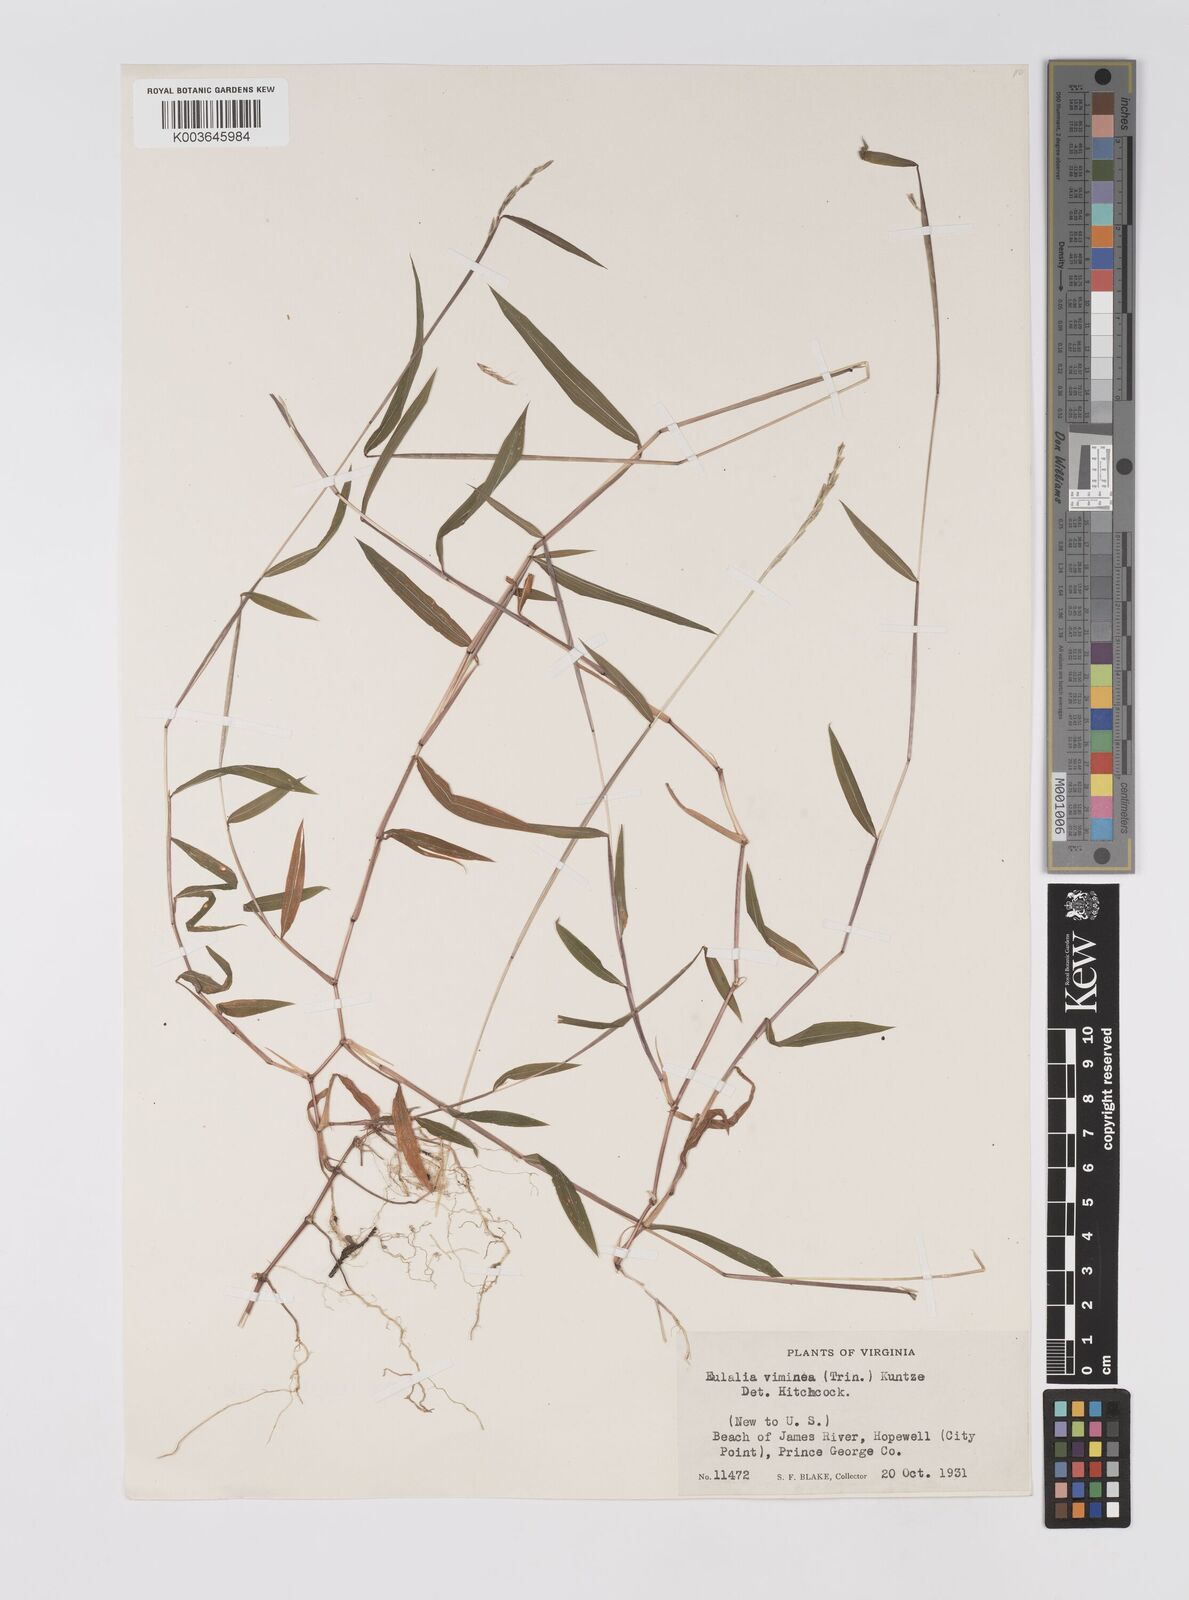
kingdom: Plantae
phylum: Tracheophyta
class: Liliopsida
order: Poales
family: Poaceae
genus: Microstegium
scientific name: Microstegium vimineum
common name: Japanese stiltgrass
